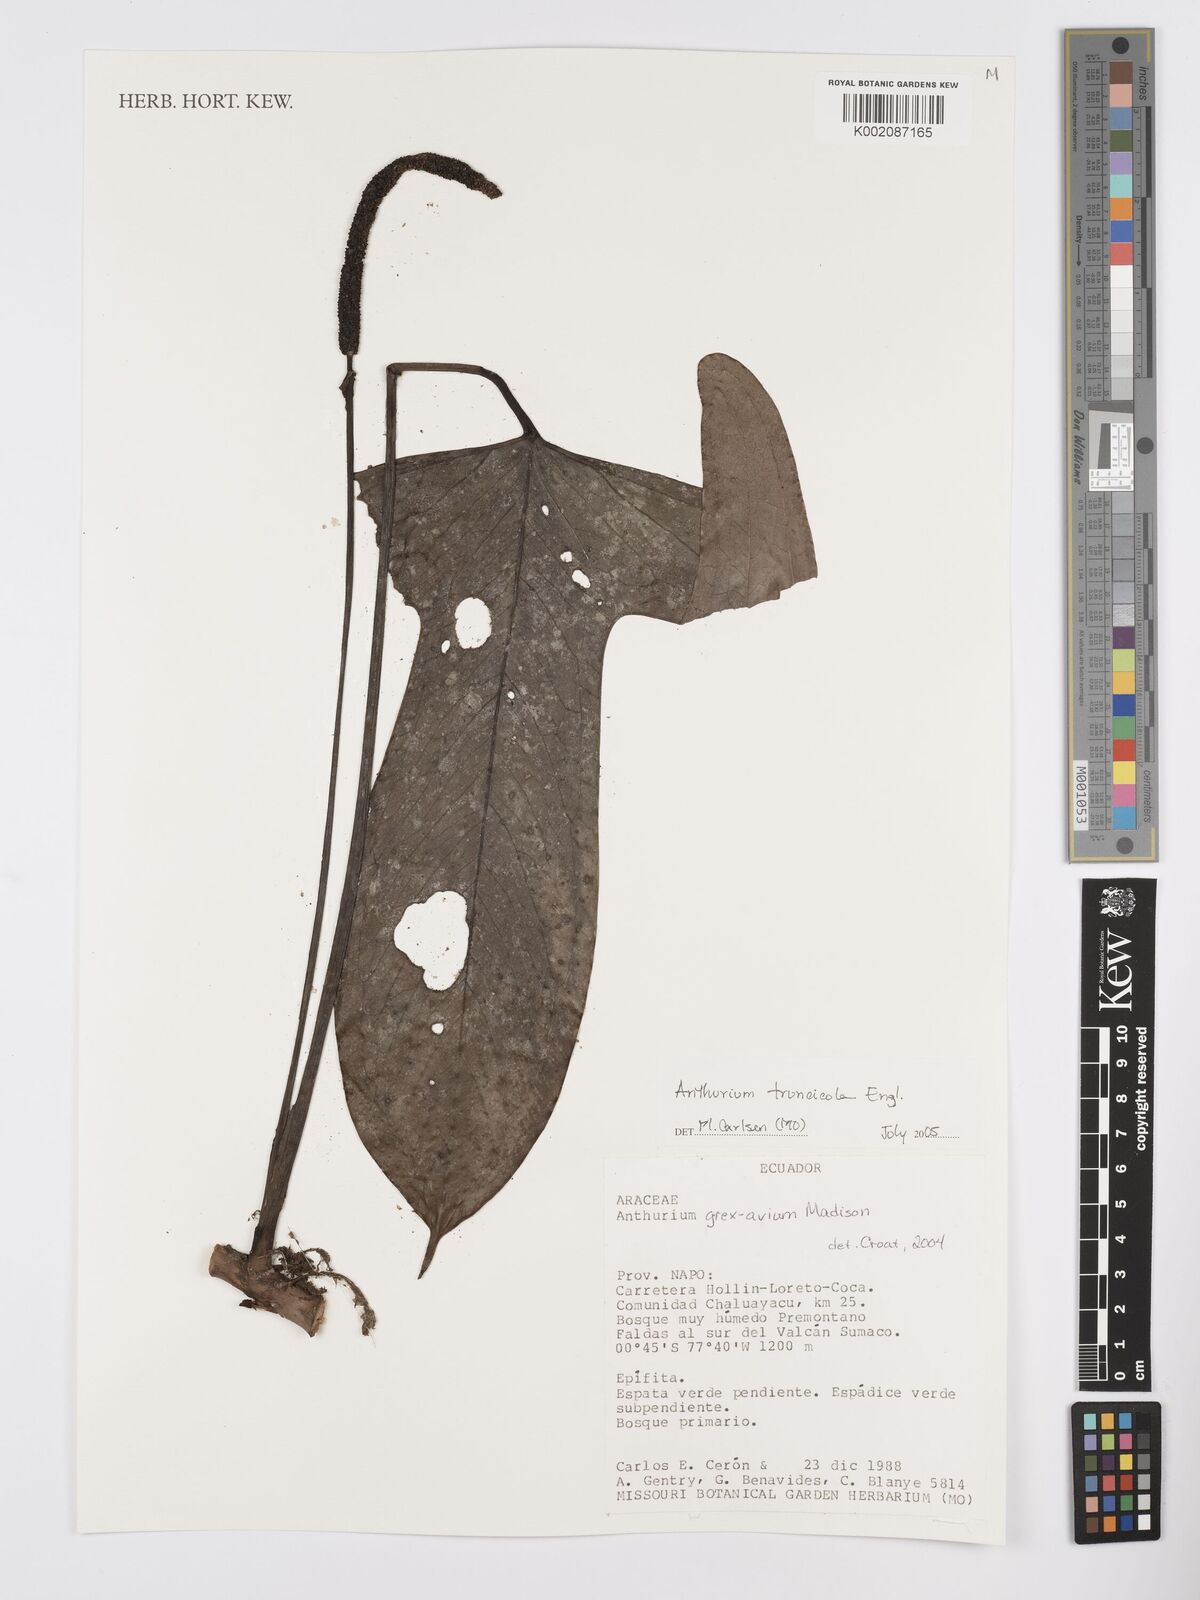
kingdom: Plantae
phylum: Tracheophyta
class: Liliopsida
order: Alismatales
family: Araceae
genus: Anthurium
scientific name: Anthurium truncicola
